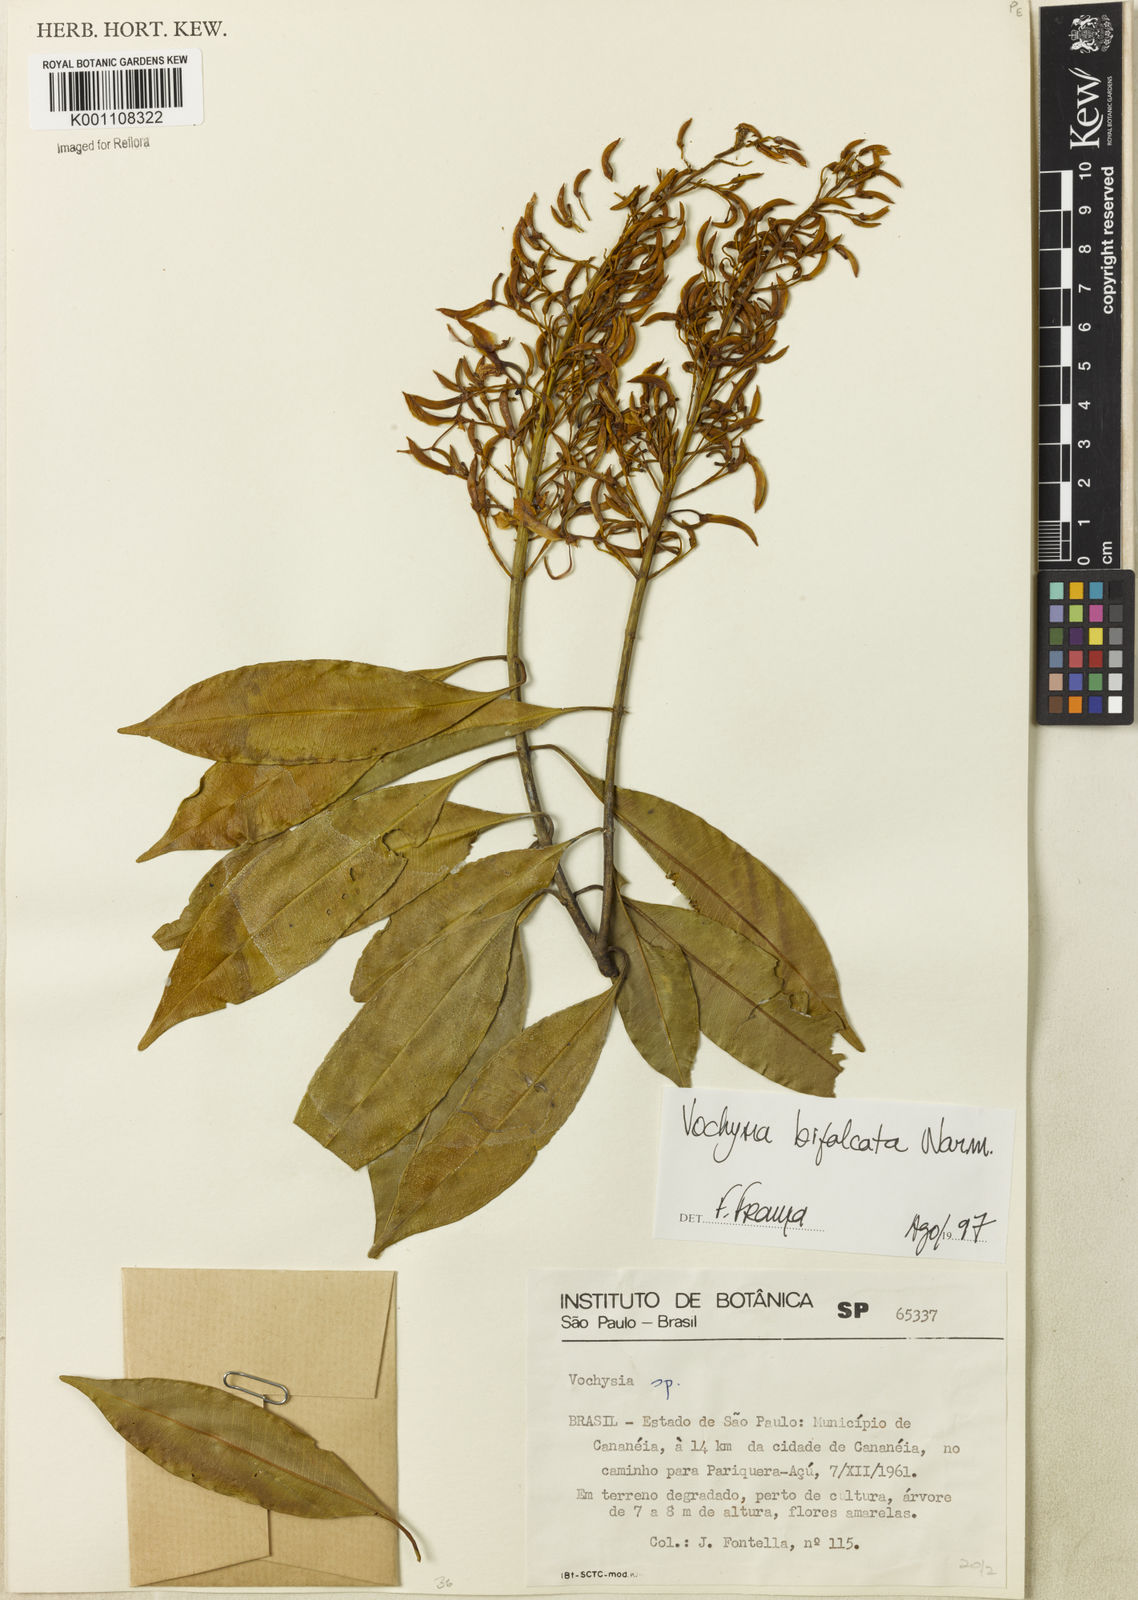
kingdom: Plantae
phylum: Tracheophyta
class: Magnoliopsida
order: Myrtales
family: Vochysiaceae
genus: Vochysia
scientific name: Vochysia bifalcata
